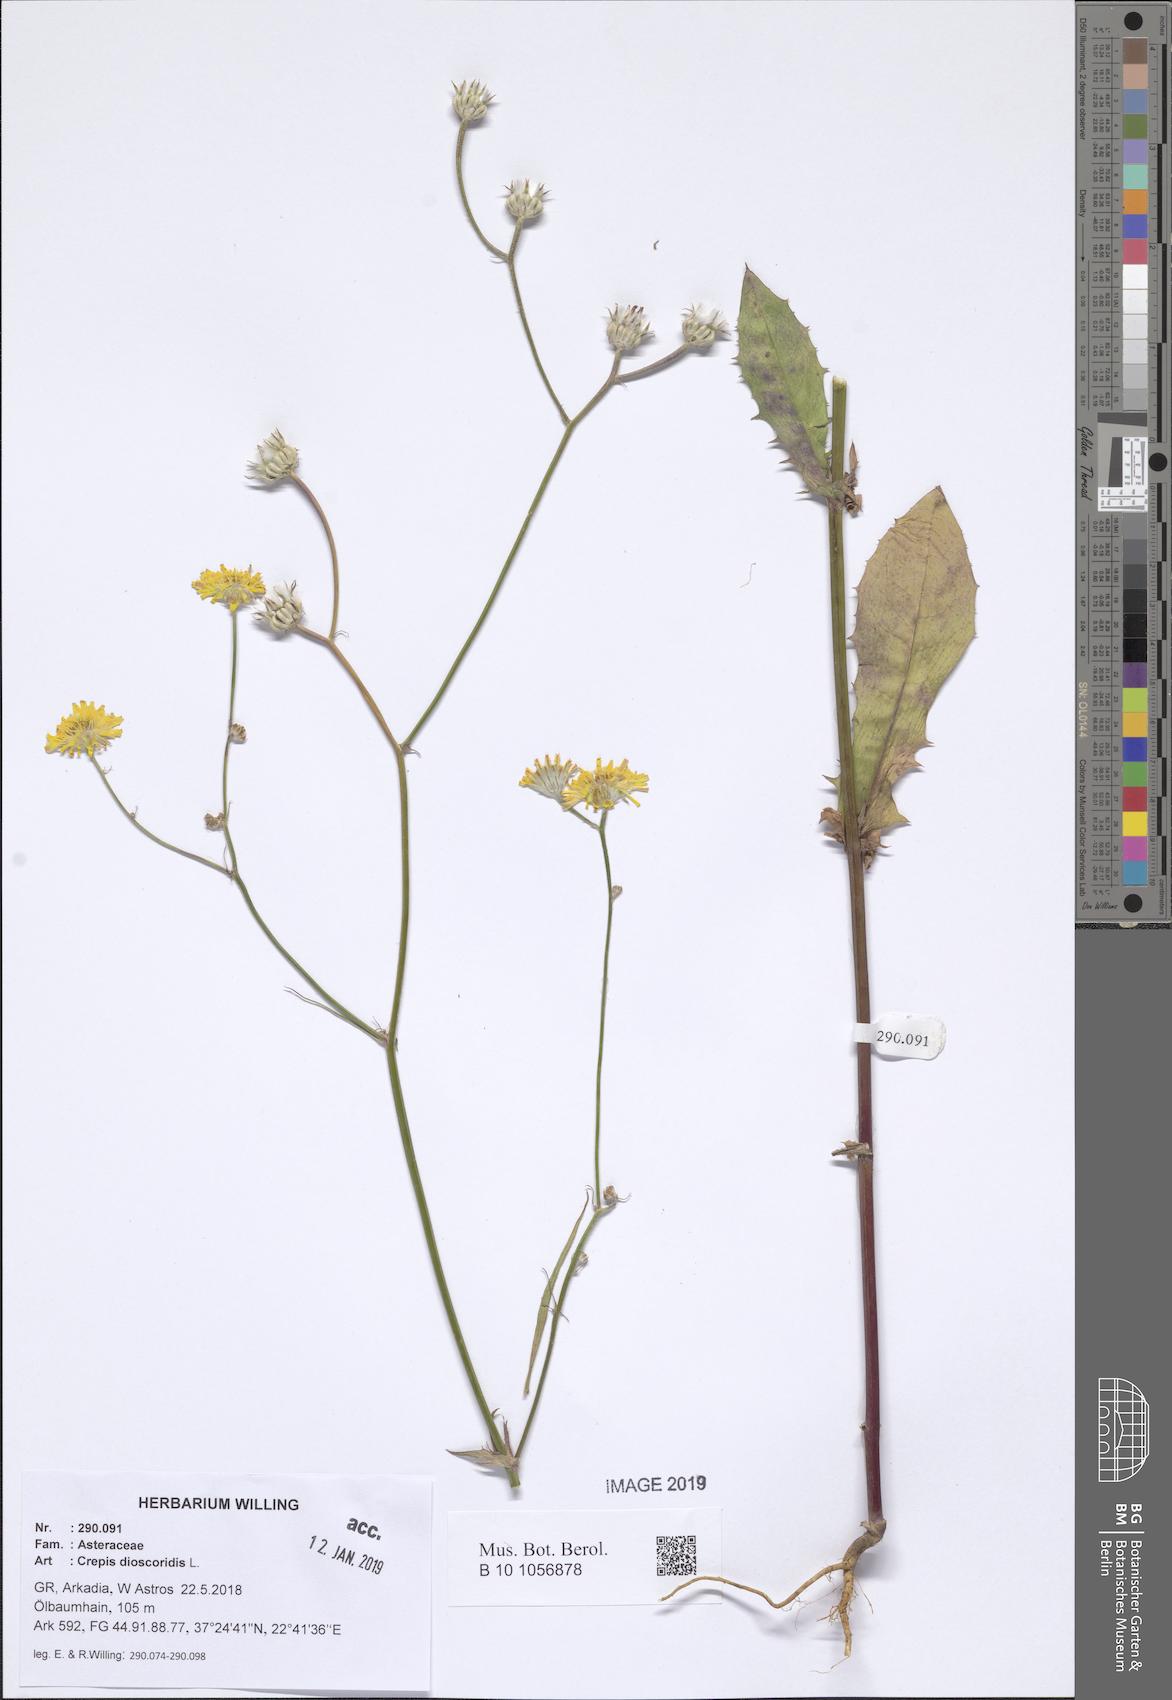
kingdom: Plantae
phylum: Tracheophyta
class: Magnoliopsida
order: Asterales
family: Asteraceae
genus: Crepis
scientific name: Crepis dioscoridis
